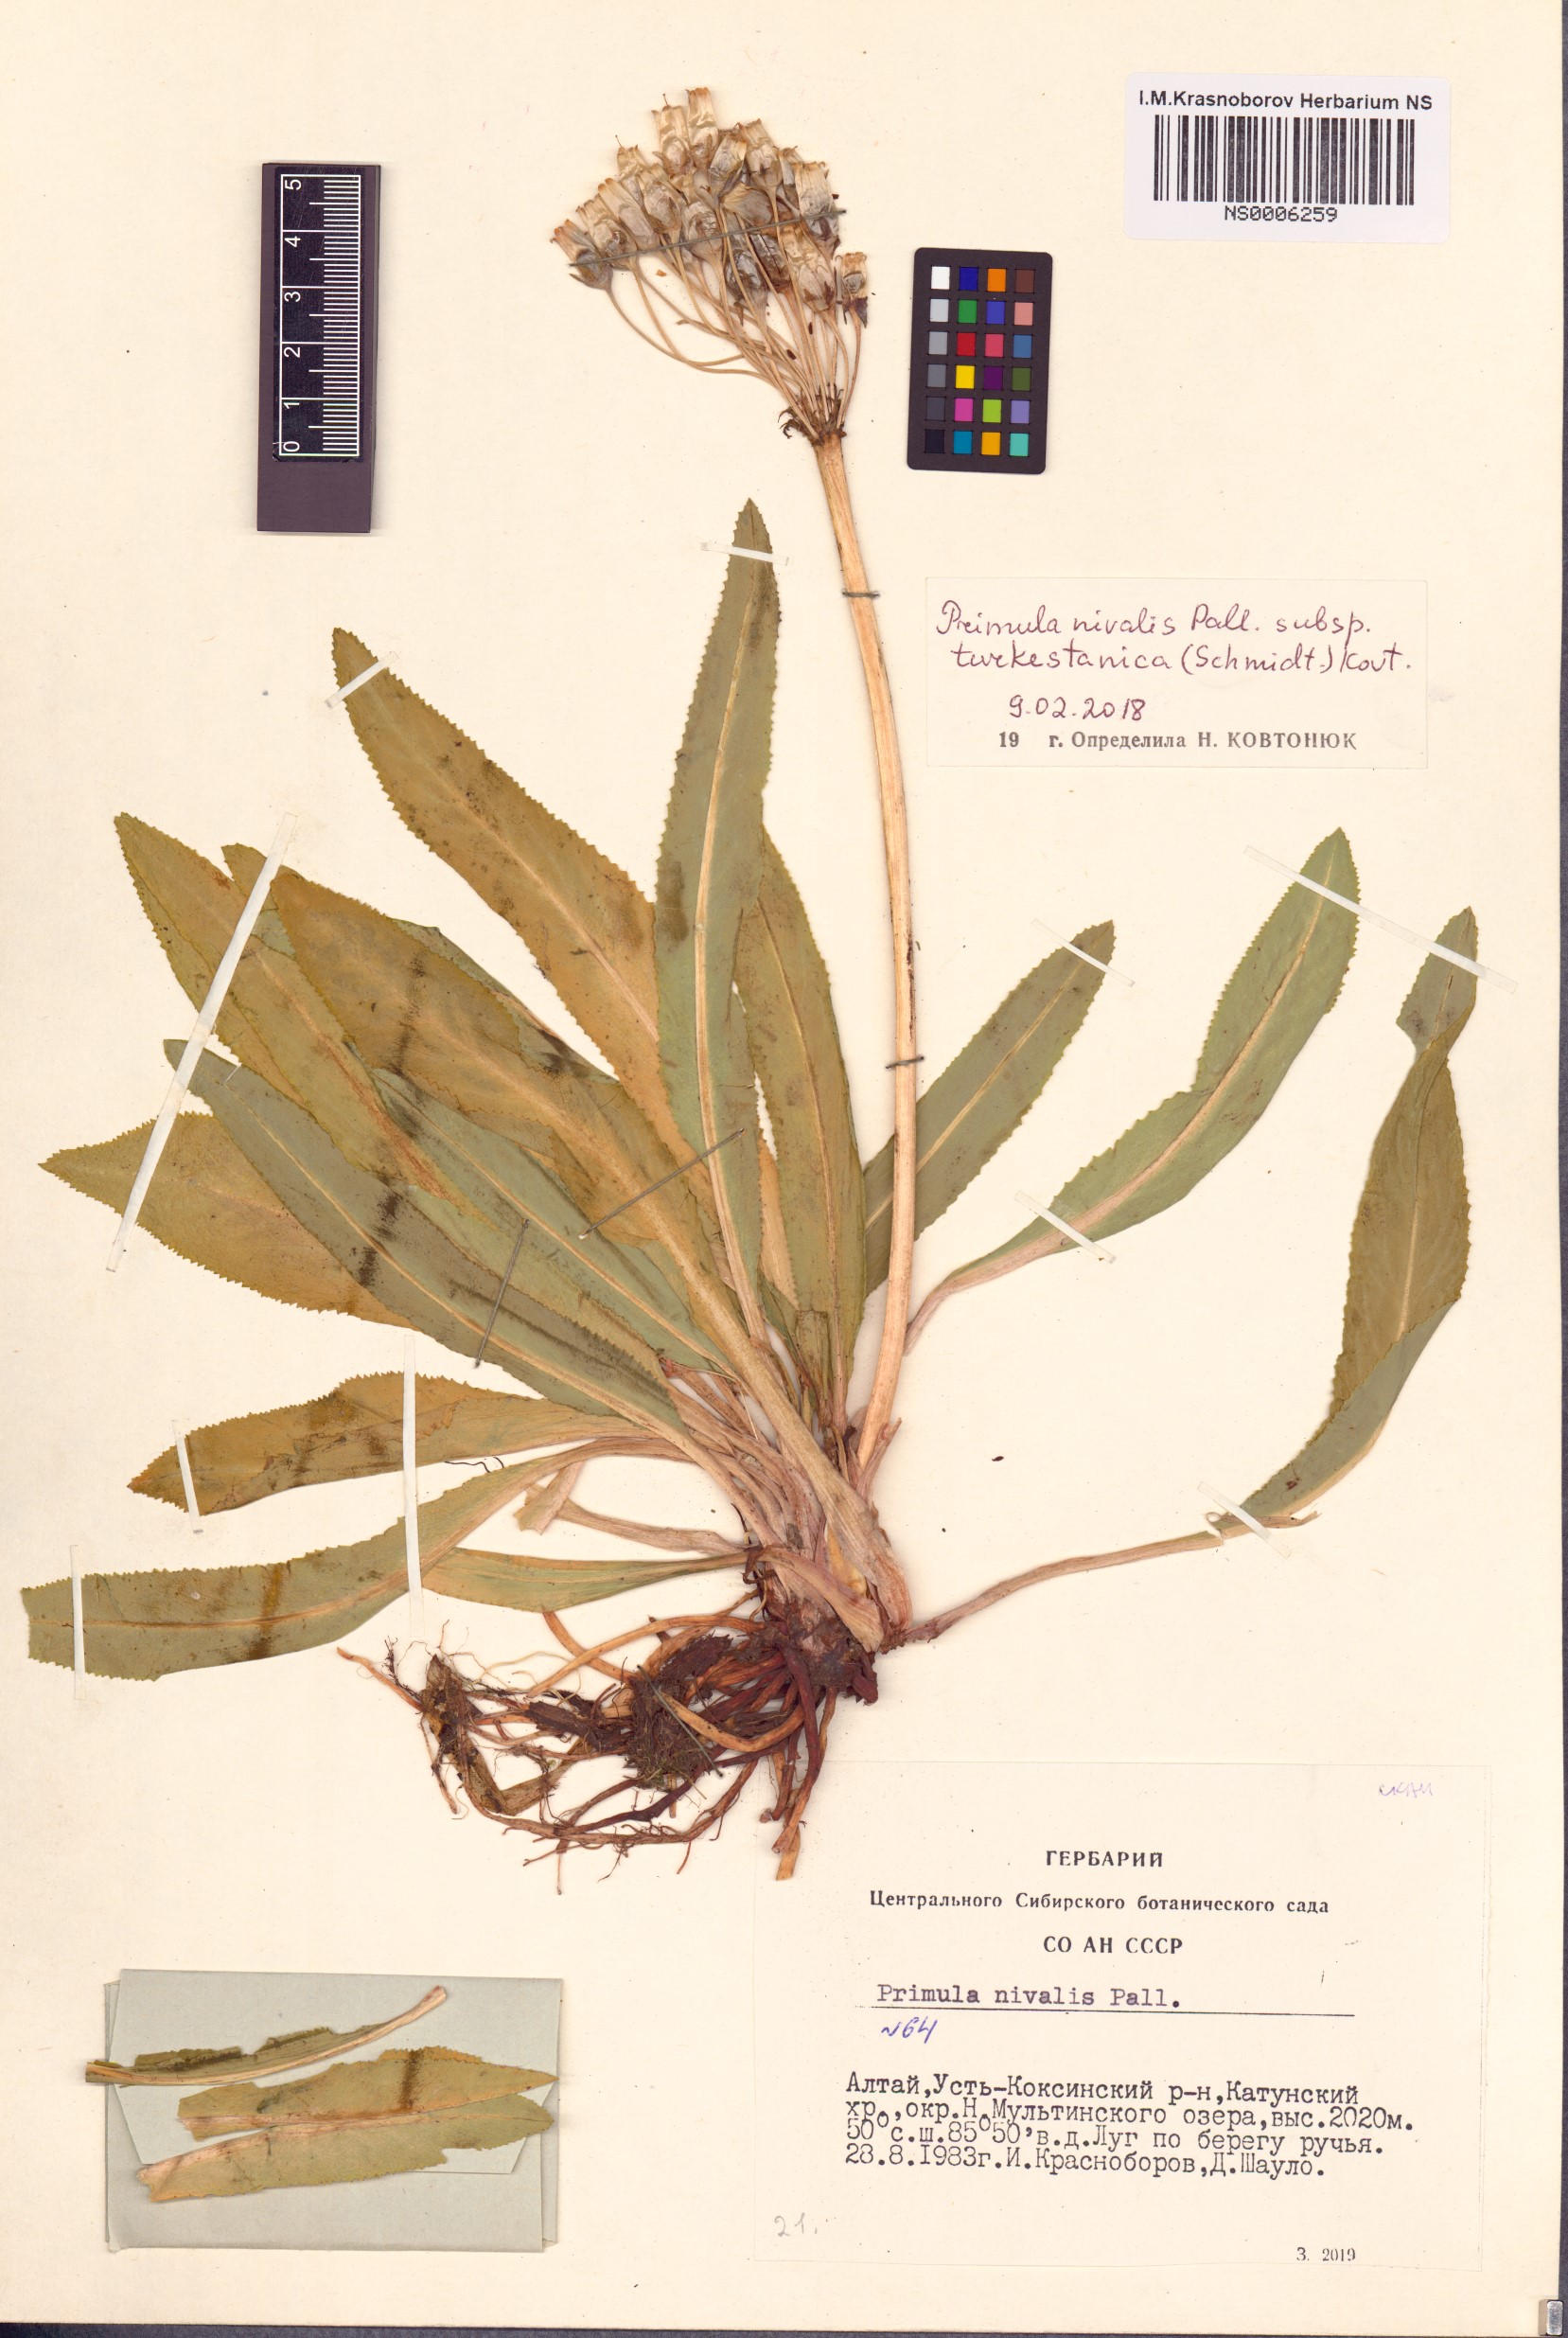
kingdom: Plantae
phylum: Tracheophyta
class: Magnoliopsida
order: Ericales
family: Primulaceae
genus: Primula
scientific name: Primula nivalis
